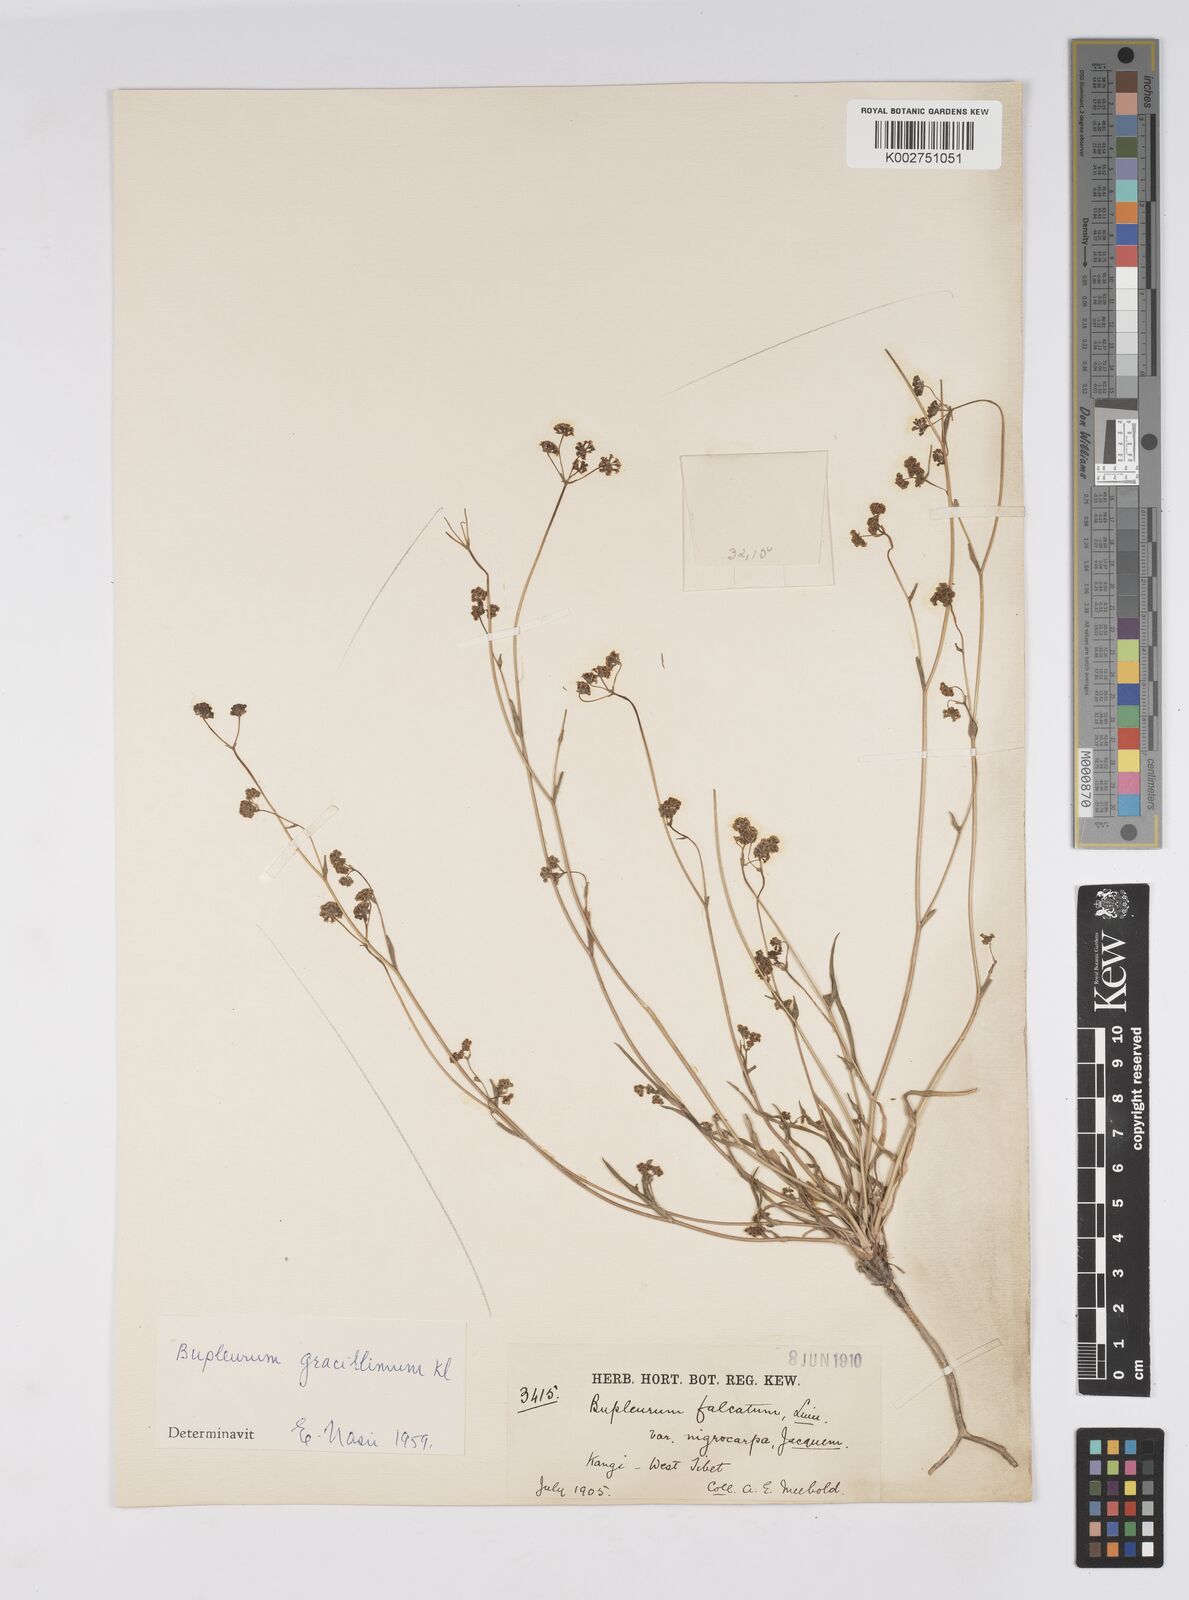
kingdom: Plantae
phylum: Tracheophyta
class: Magnoliopsida
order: Apiales
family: Apiaceae
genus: Bupleurum
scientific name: Bupleurum gracillimum
